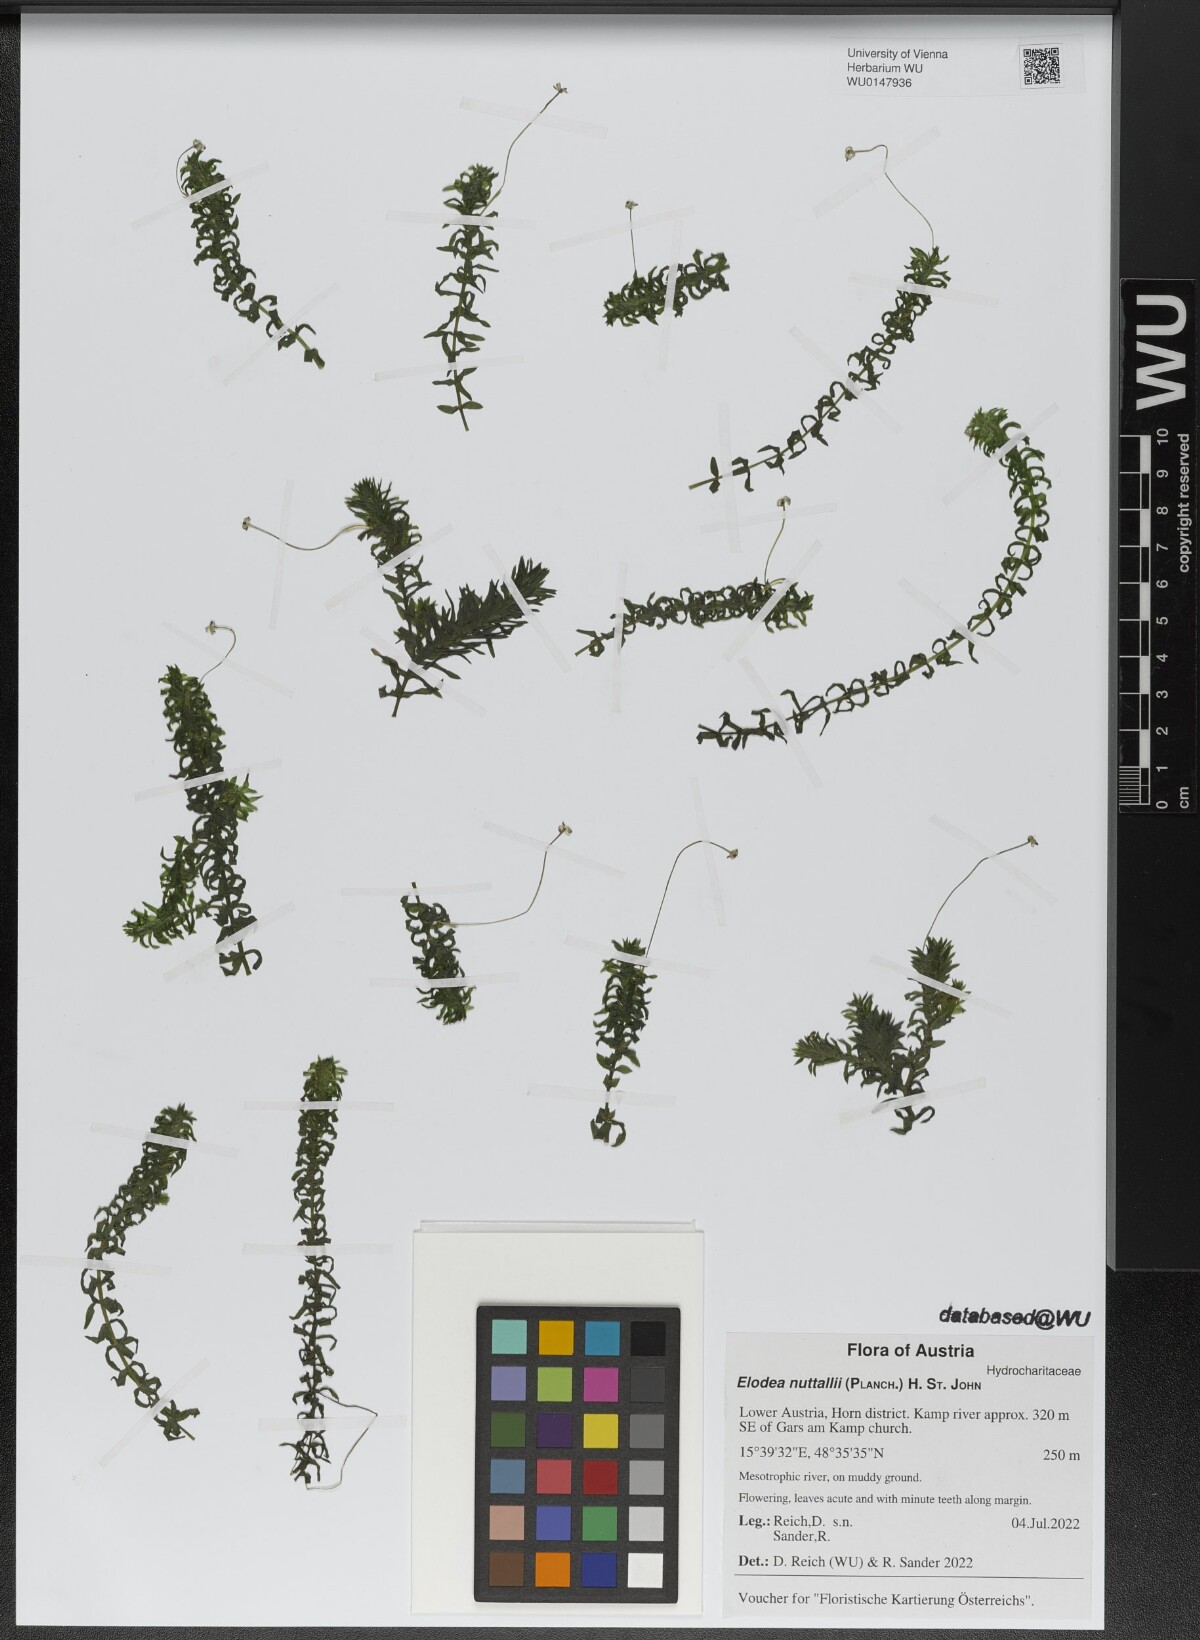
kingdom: Plantae
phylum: Tracheophyta
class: Liliopsida
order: Alismatales
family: Hydrocharitaceae
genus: Elodea
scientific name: Elodea nuttallii
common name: Nuttall's waterweed
